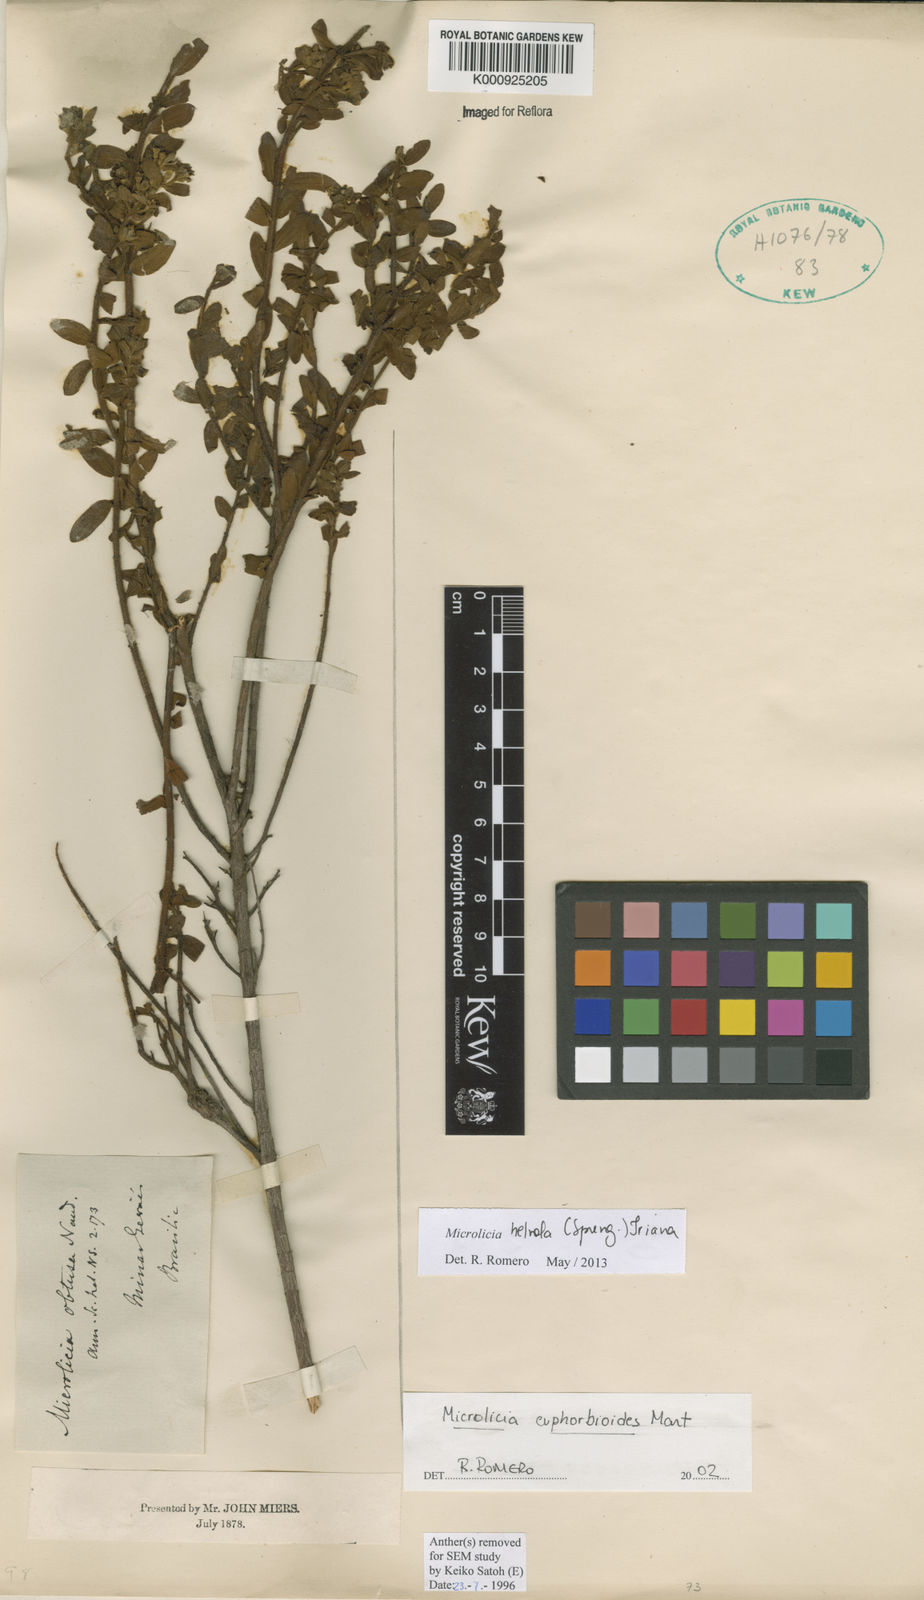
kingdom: Plantae
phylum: Tracheophyta
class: Magnoliopsida
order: Myrtales
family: Melastomataceae
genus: Microlicia
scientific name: Microlicia helvola
